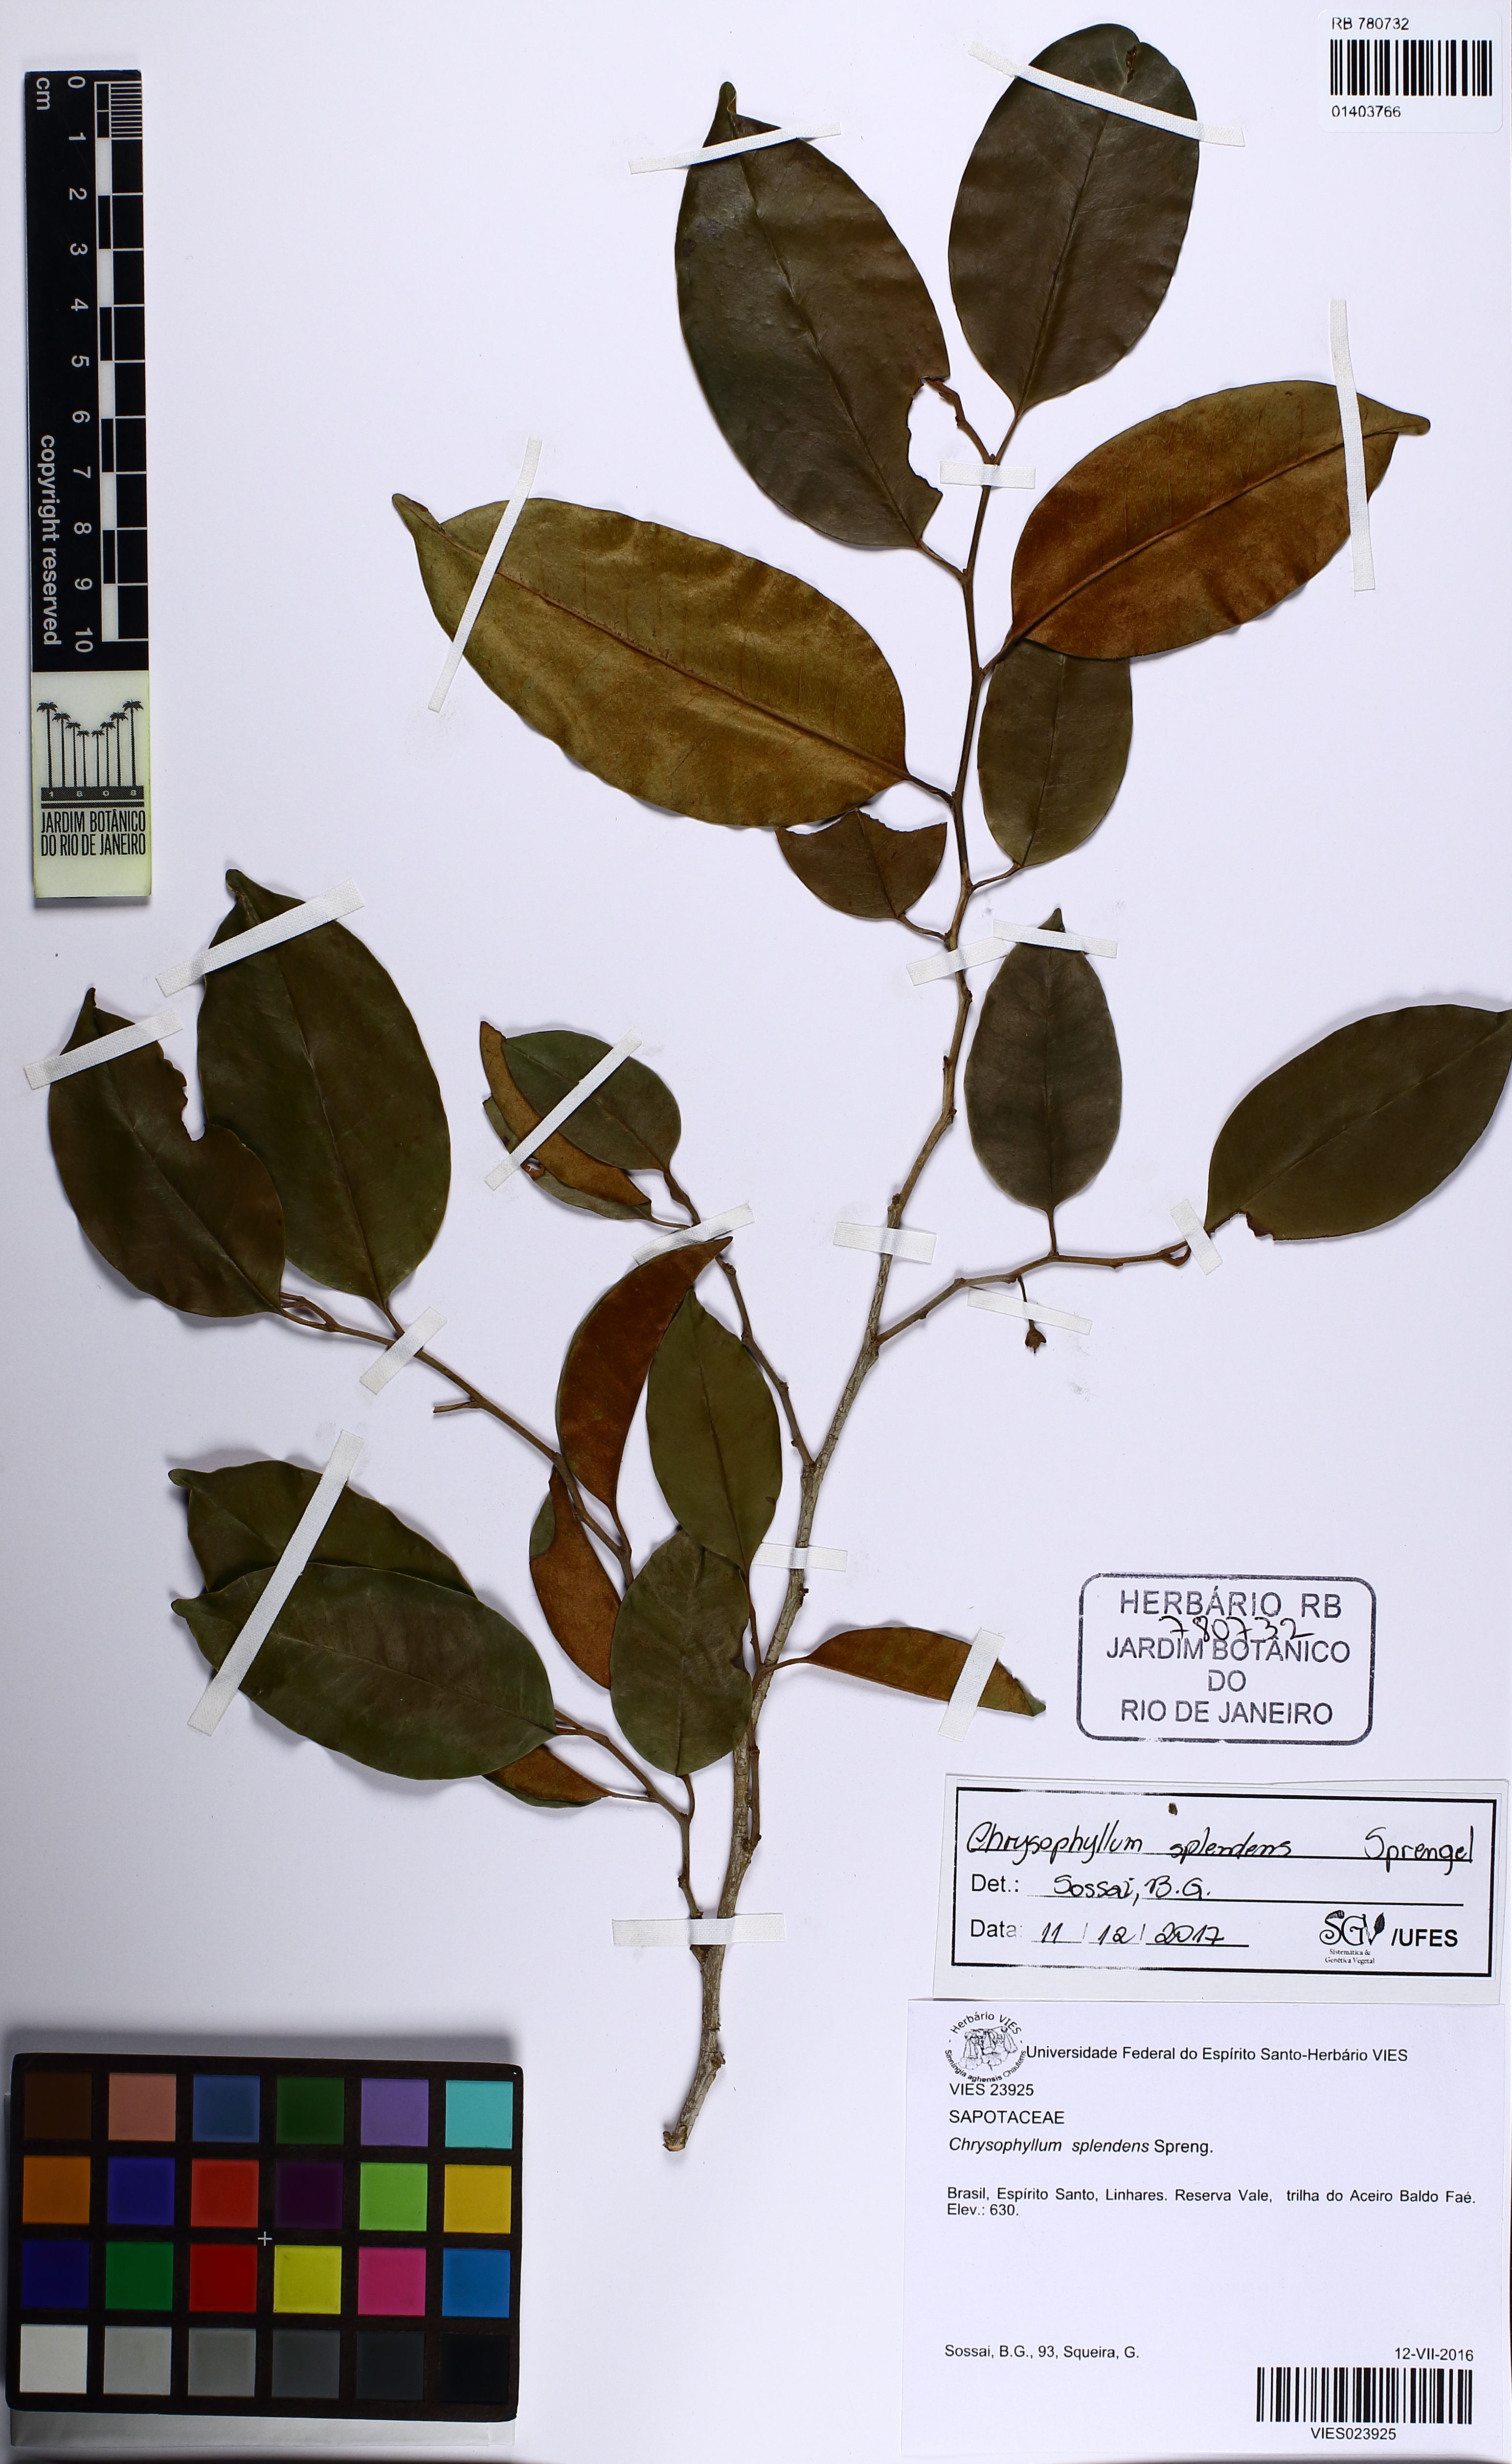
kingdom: Plantae
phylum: Tracheophyta
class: Magnoliopsida
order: Ericales
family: Sapotaceae
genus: Chrysophyllum
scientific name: Chrysophyllum splendens
